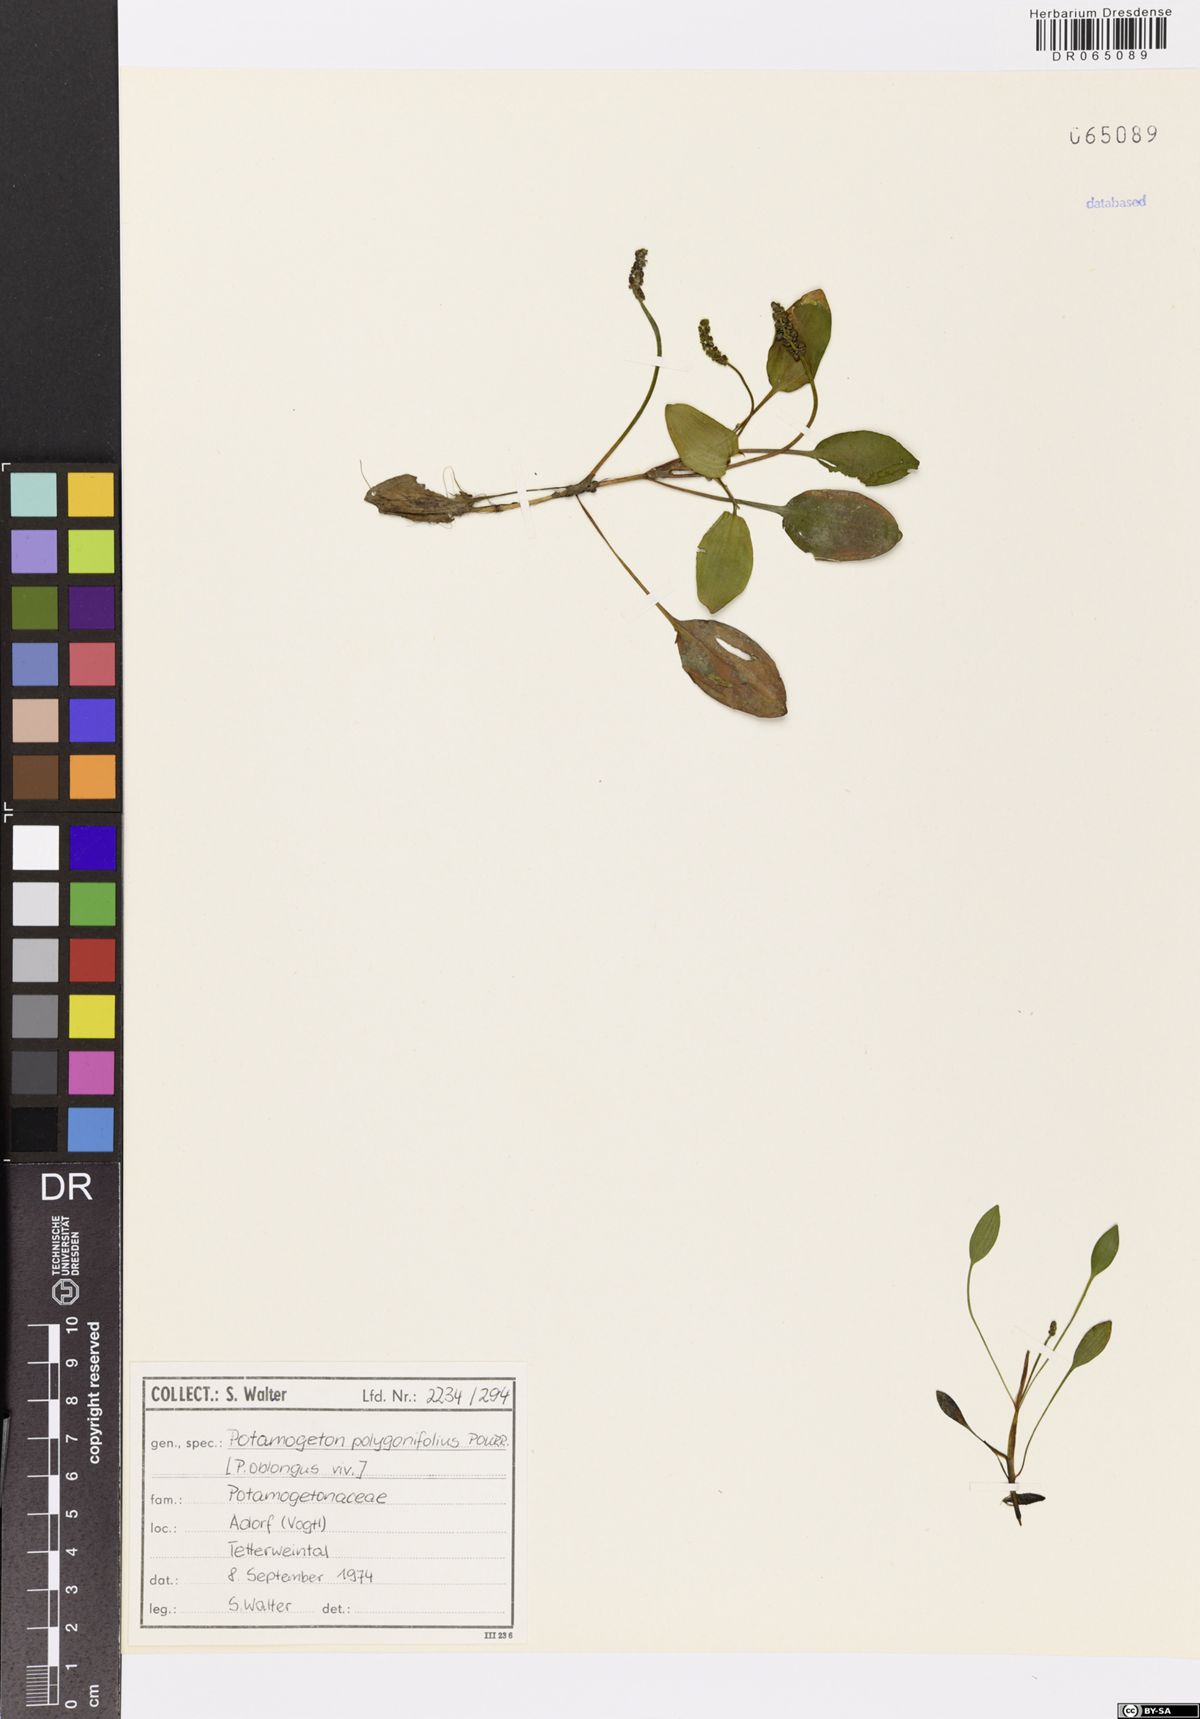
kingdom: Plantae
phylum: Tracheophyta
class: Liliopsida
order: Alismatales
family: Potamogetonaceae
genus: Potamogeton
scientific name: Potamogeton polygonifolius
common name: Bog pondweed
